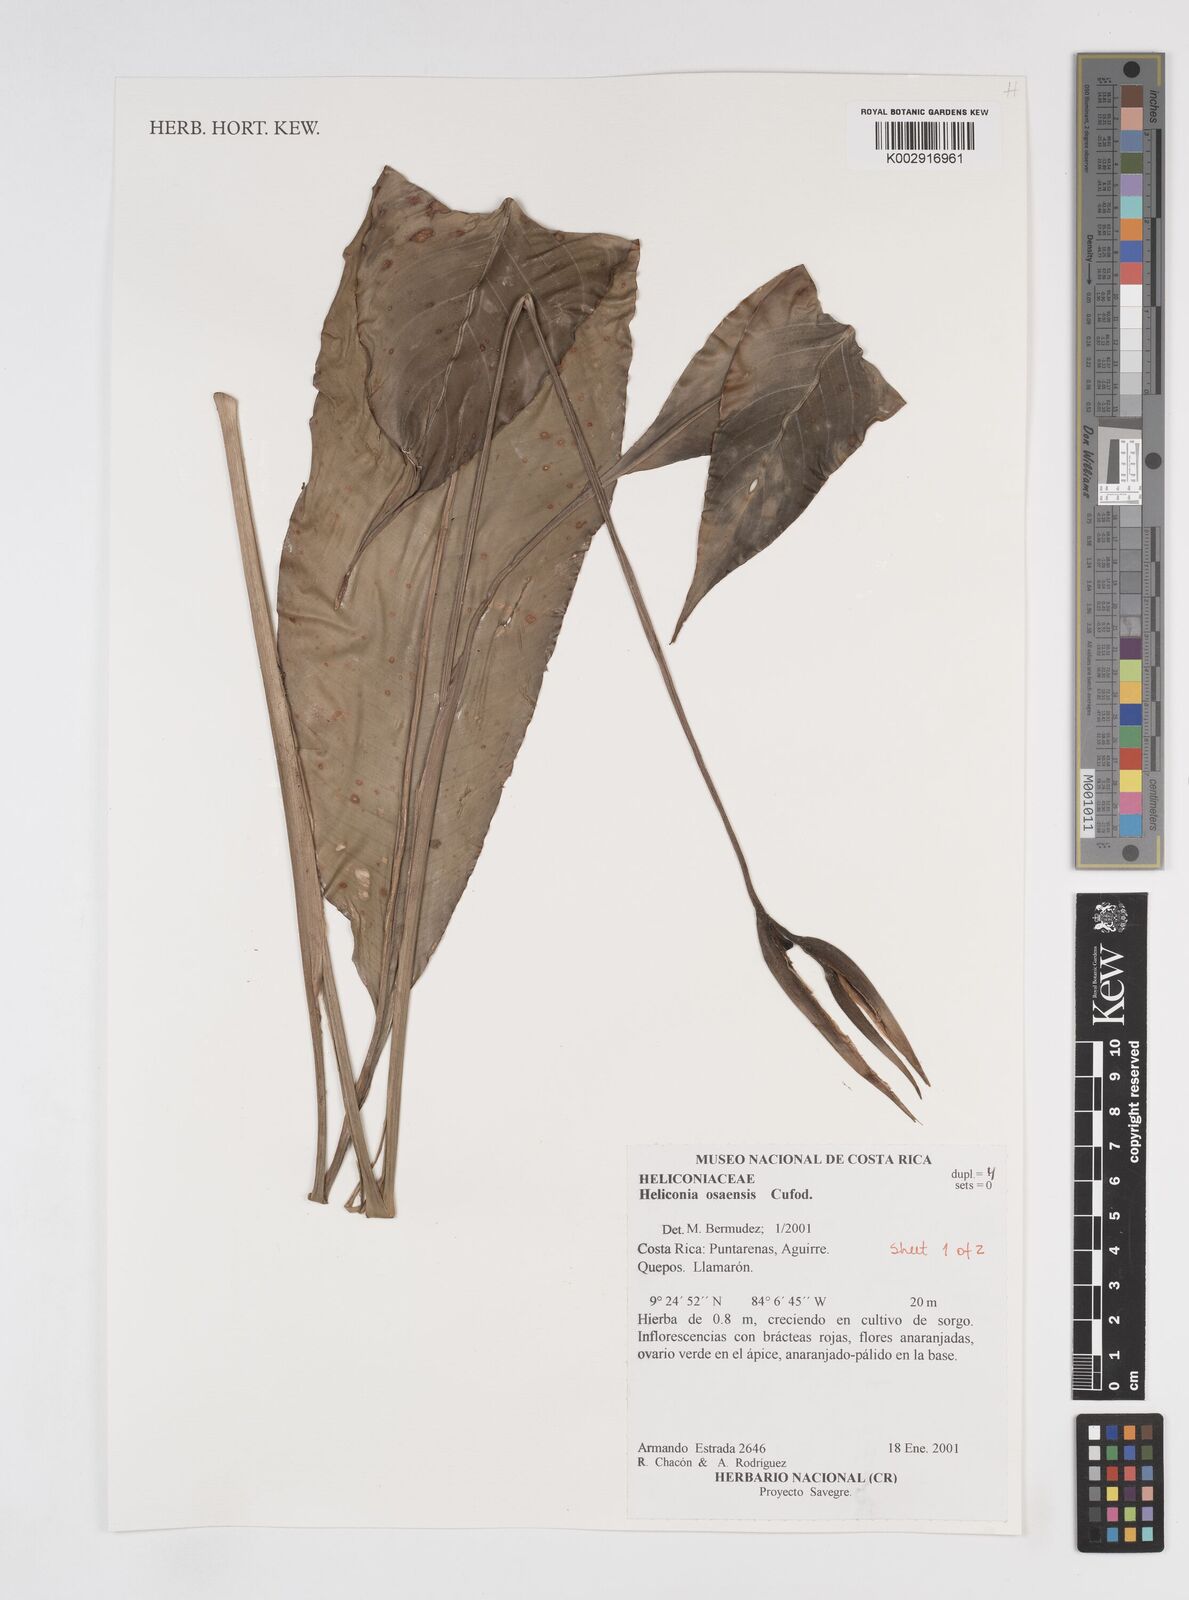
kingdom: Plantae
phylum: Tracheophyta
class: Liliopsida
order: Zingiberales
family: Heliconiaceae
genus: Heliconia
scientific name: Heliconia osaensis
